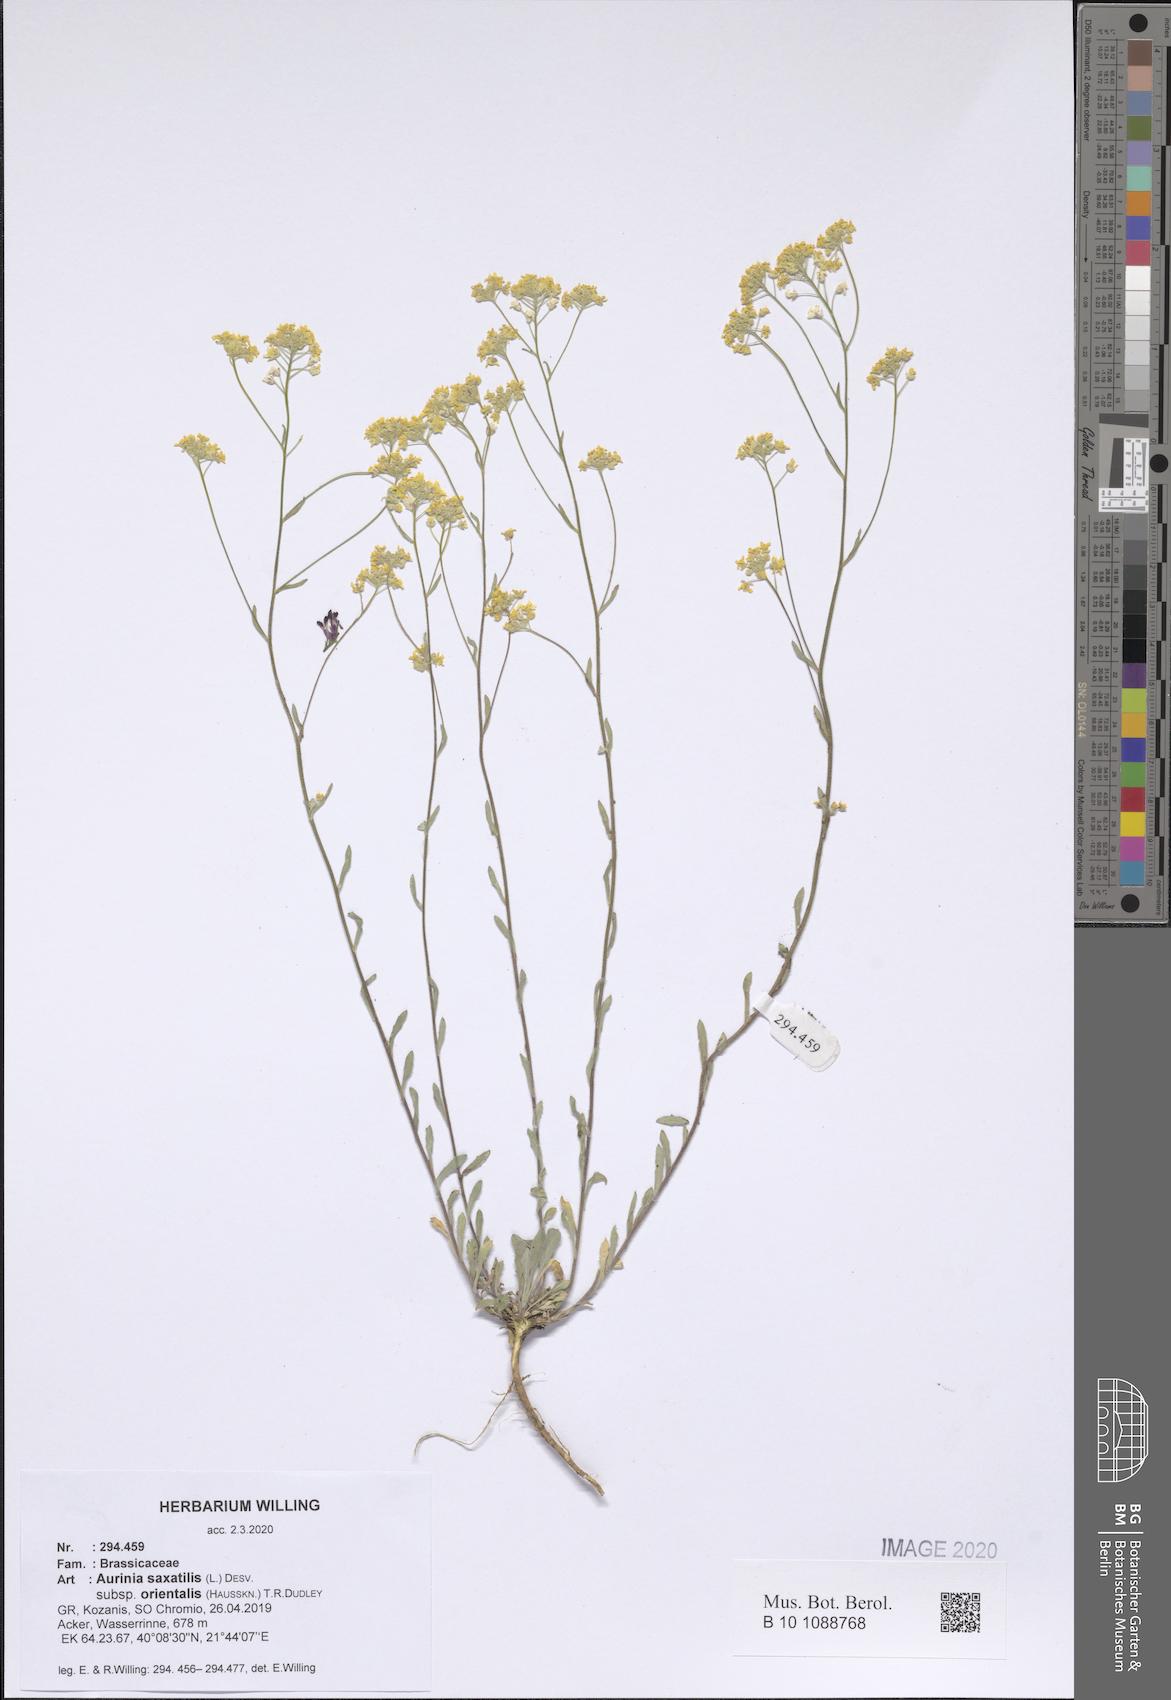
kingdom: Plantae
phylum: Tracheophyta
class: Magnoliopsida
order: Brassicales
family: Brassicaceae
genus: Aurinia
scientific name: Aurinia saxatilis
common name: Golden-tuft alyssum
